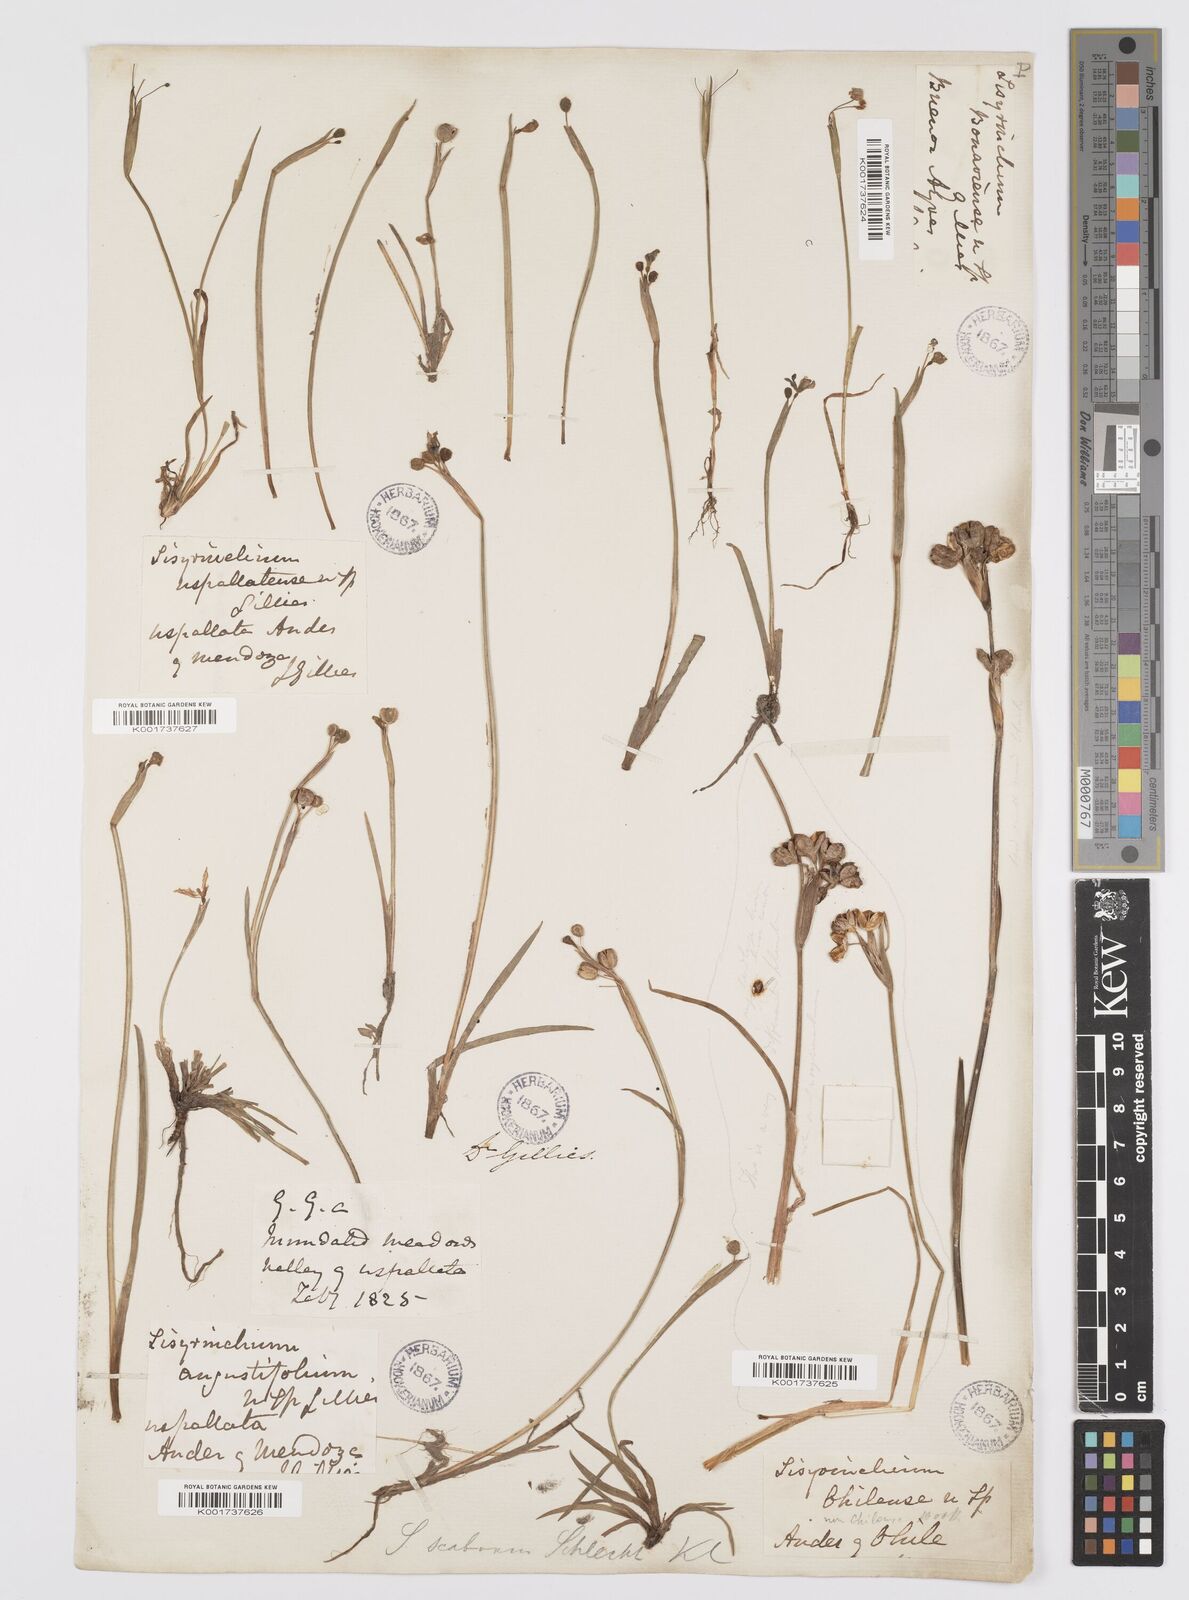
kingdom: Plantae
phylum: Tracheophyta
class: Liliopsida
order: Asparagales
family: Iridaceae
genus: Sisyrinchium
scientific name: Sisyrinchium scabrum
